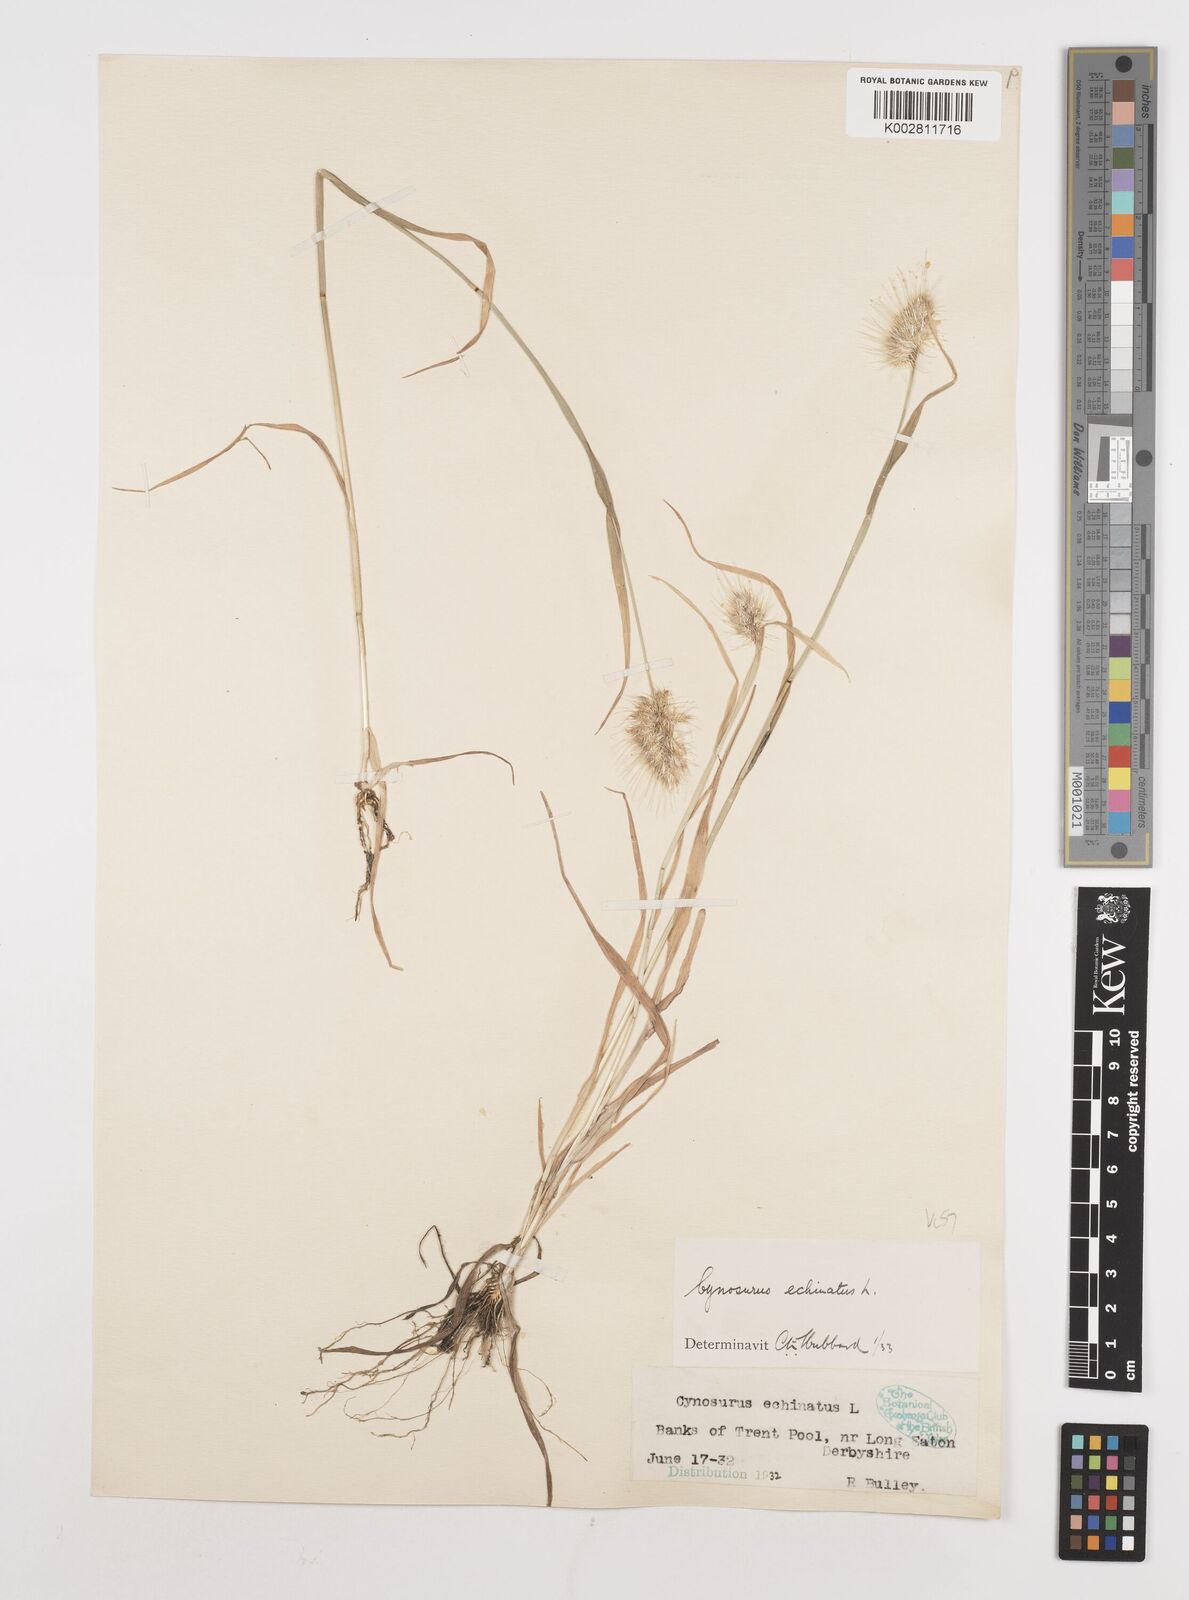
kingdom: Plantae
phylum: Tracheophyta
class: Liliopsida
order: Poales
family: Poaceae
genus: Cynosurus
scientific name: Cynosurus echinatus
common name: Rough dog's-tail
